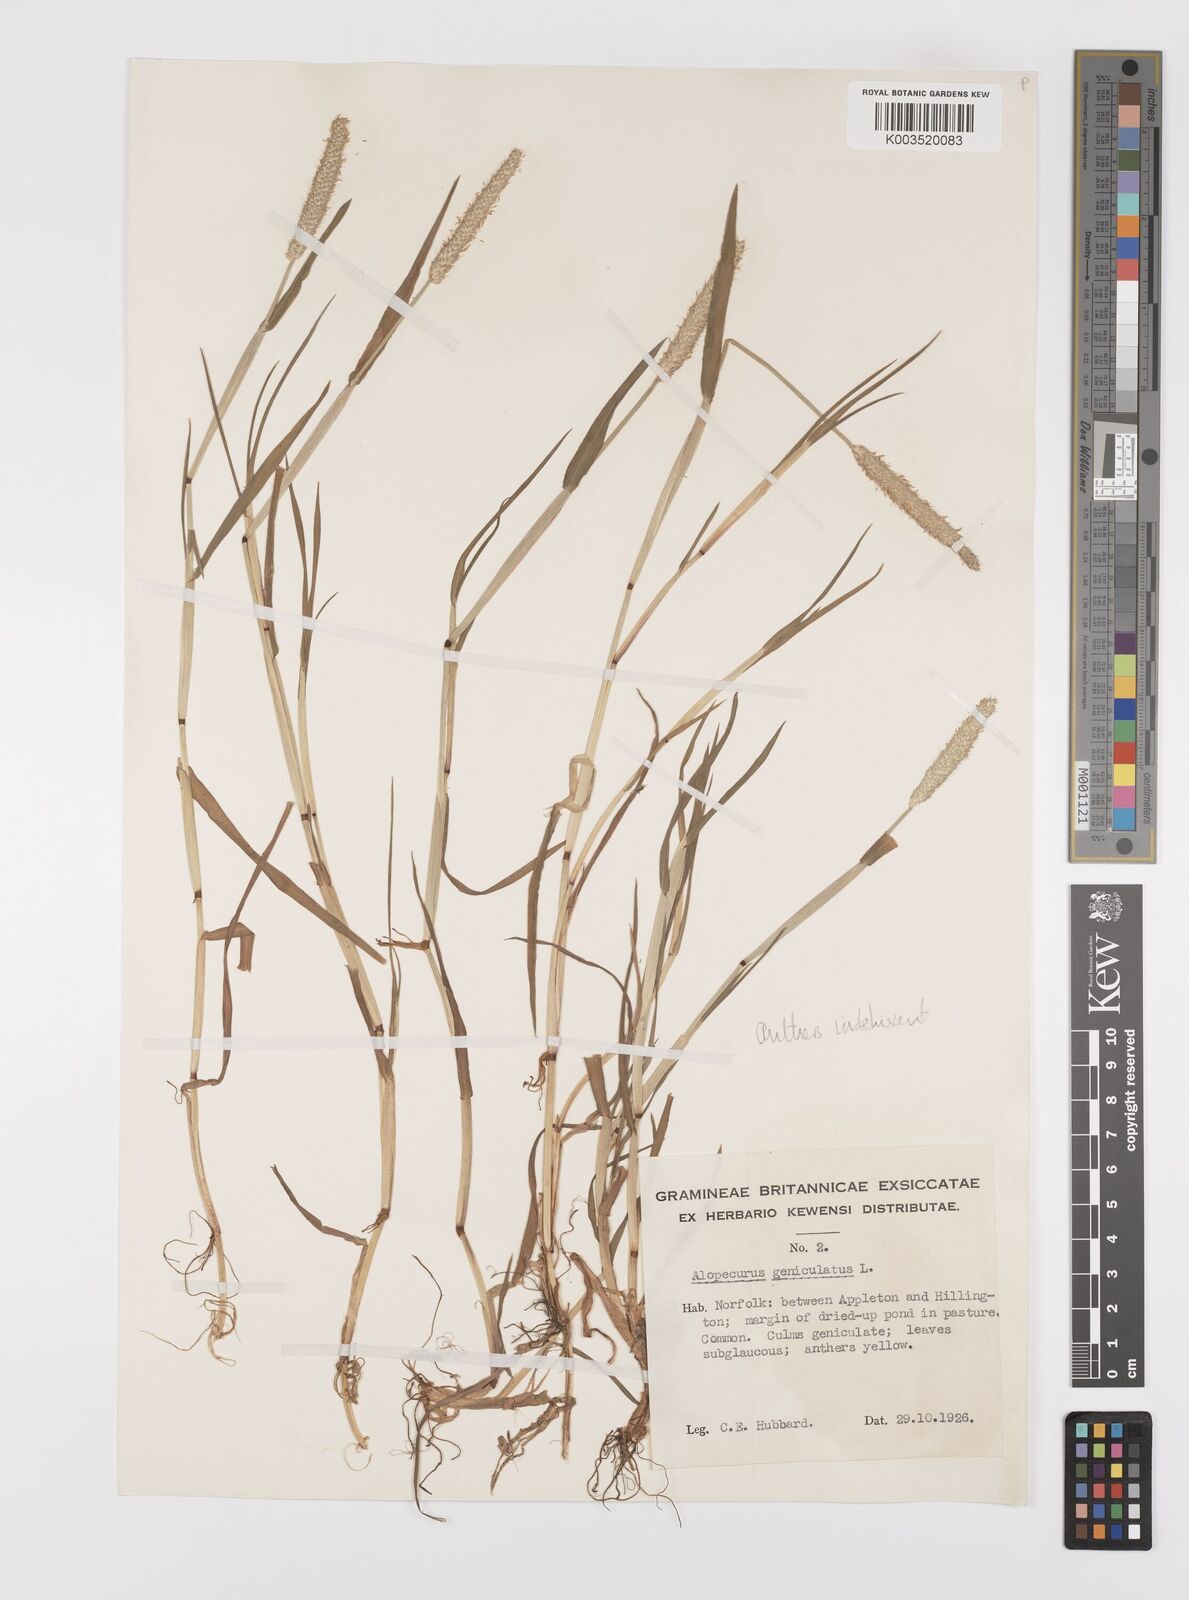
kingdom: Plantae
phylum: Tracheophyta
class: Liliopsida
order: Poales
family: Poaceae
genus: Alopecurus
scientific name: Alopecurus haussknechtianus
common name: Haussknecht's foxtail
